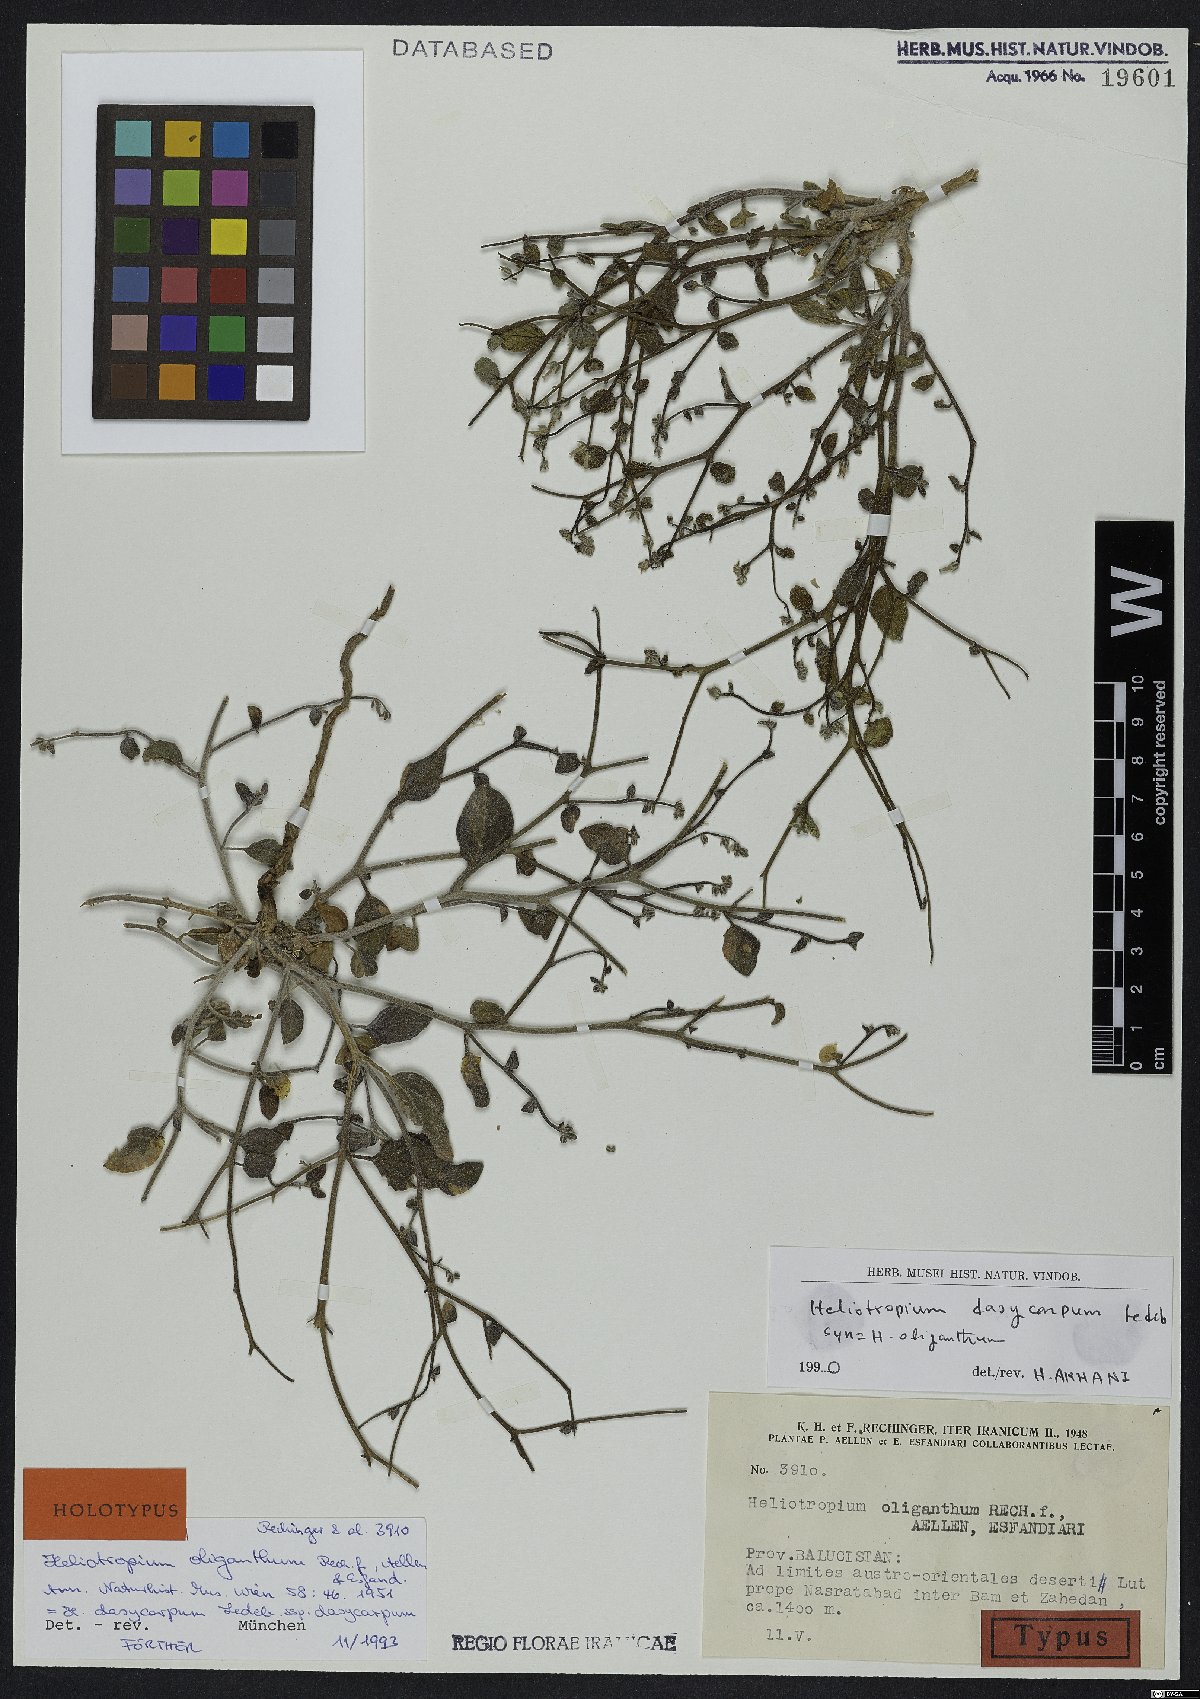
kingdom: Plantae
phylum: Tracheophyta
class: Magnoliopsida
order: Boraginales
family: Heliotropiaceae
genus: Heliotropium
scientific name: Heliotropium dasycarpum
